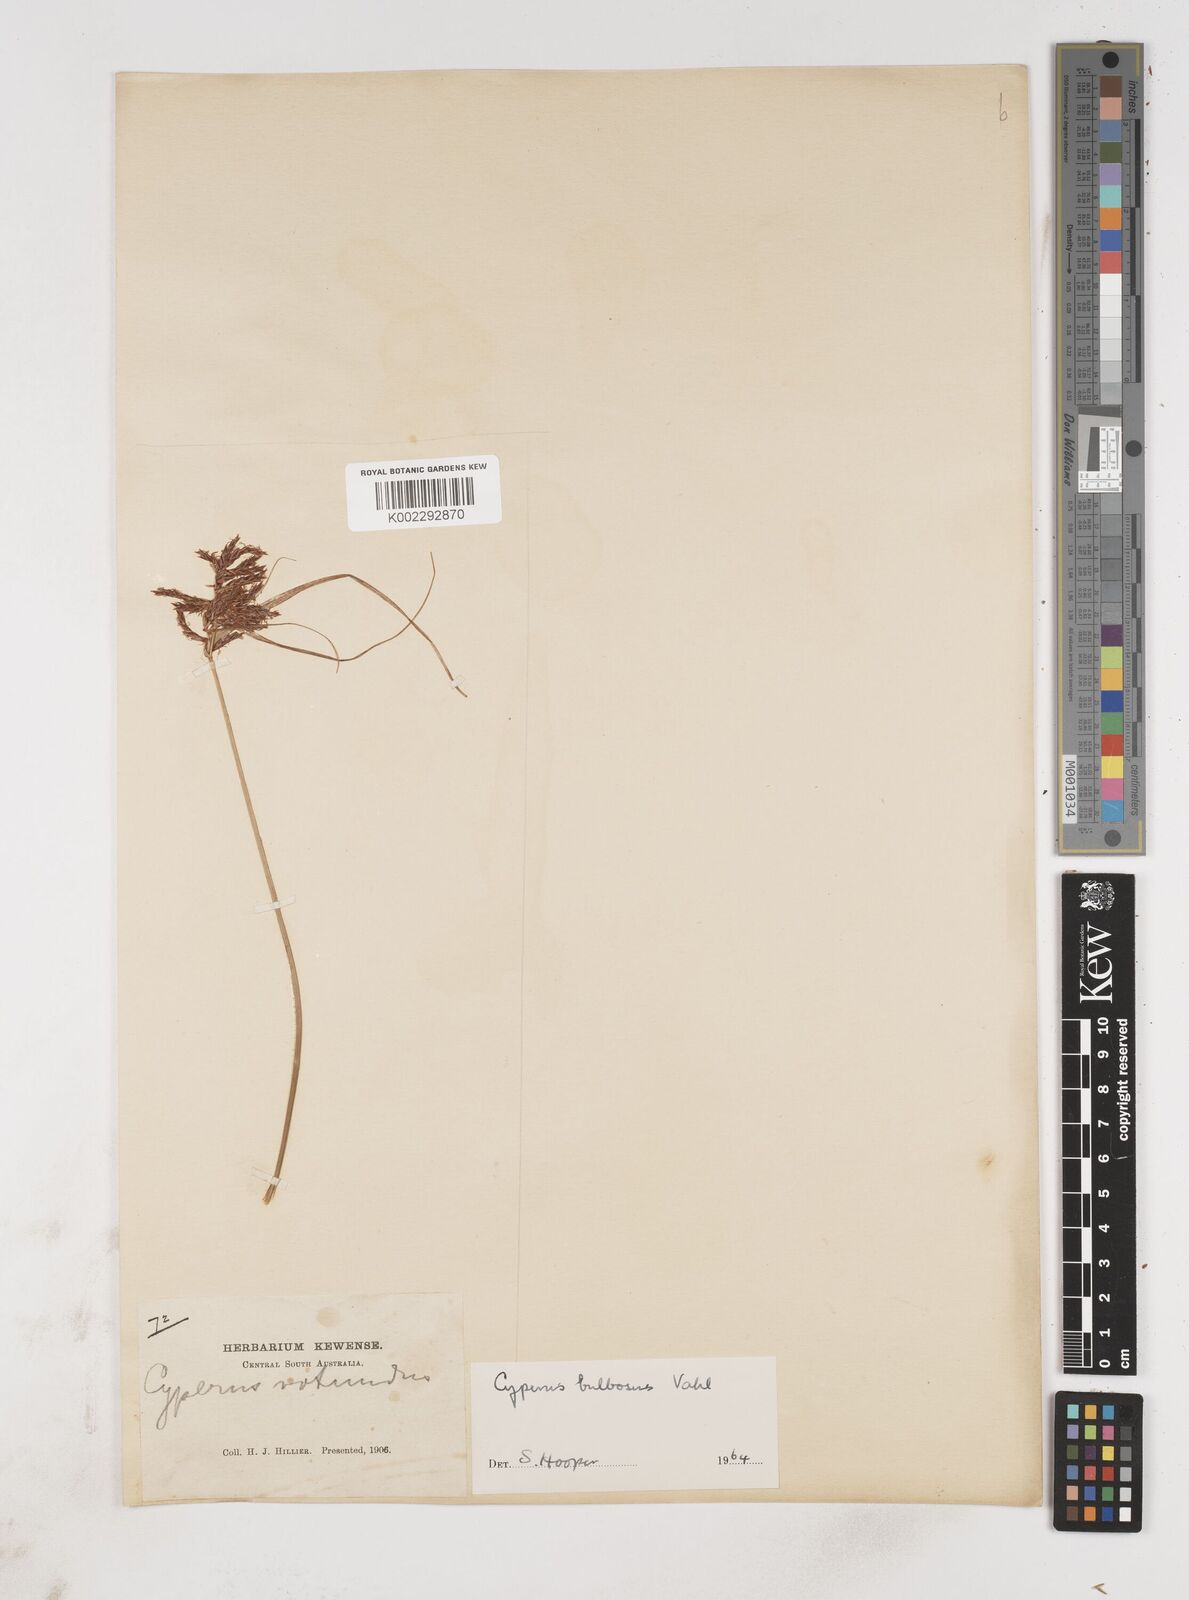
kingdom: Plantae
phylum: Tracheophyta
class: Liliopsida
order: Poales
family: Cyperaceae
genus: Cyperus
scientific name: Cyperus bulbosus
